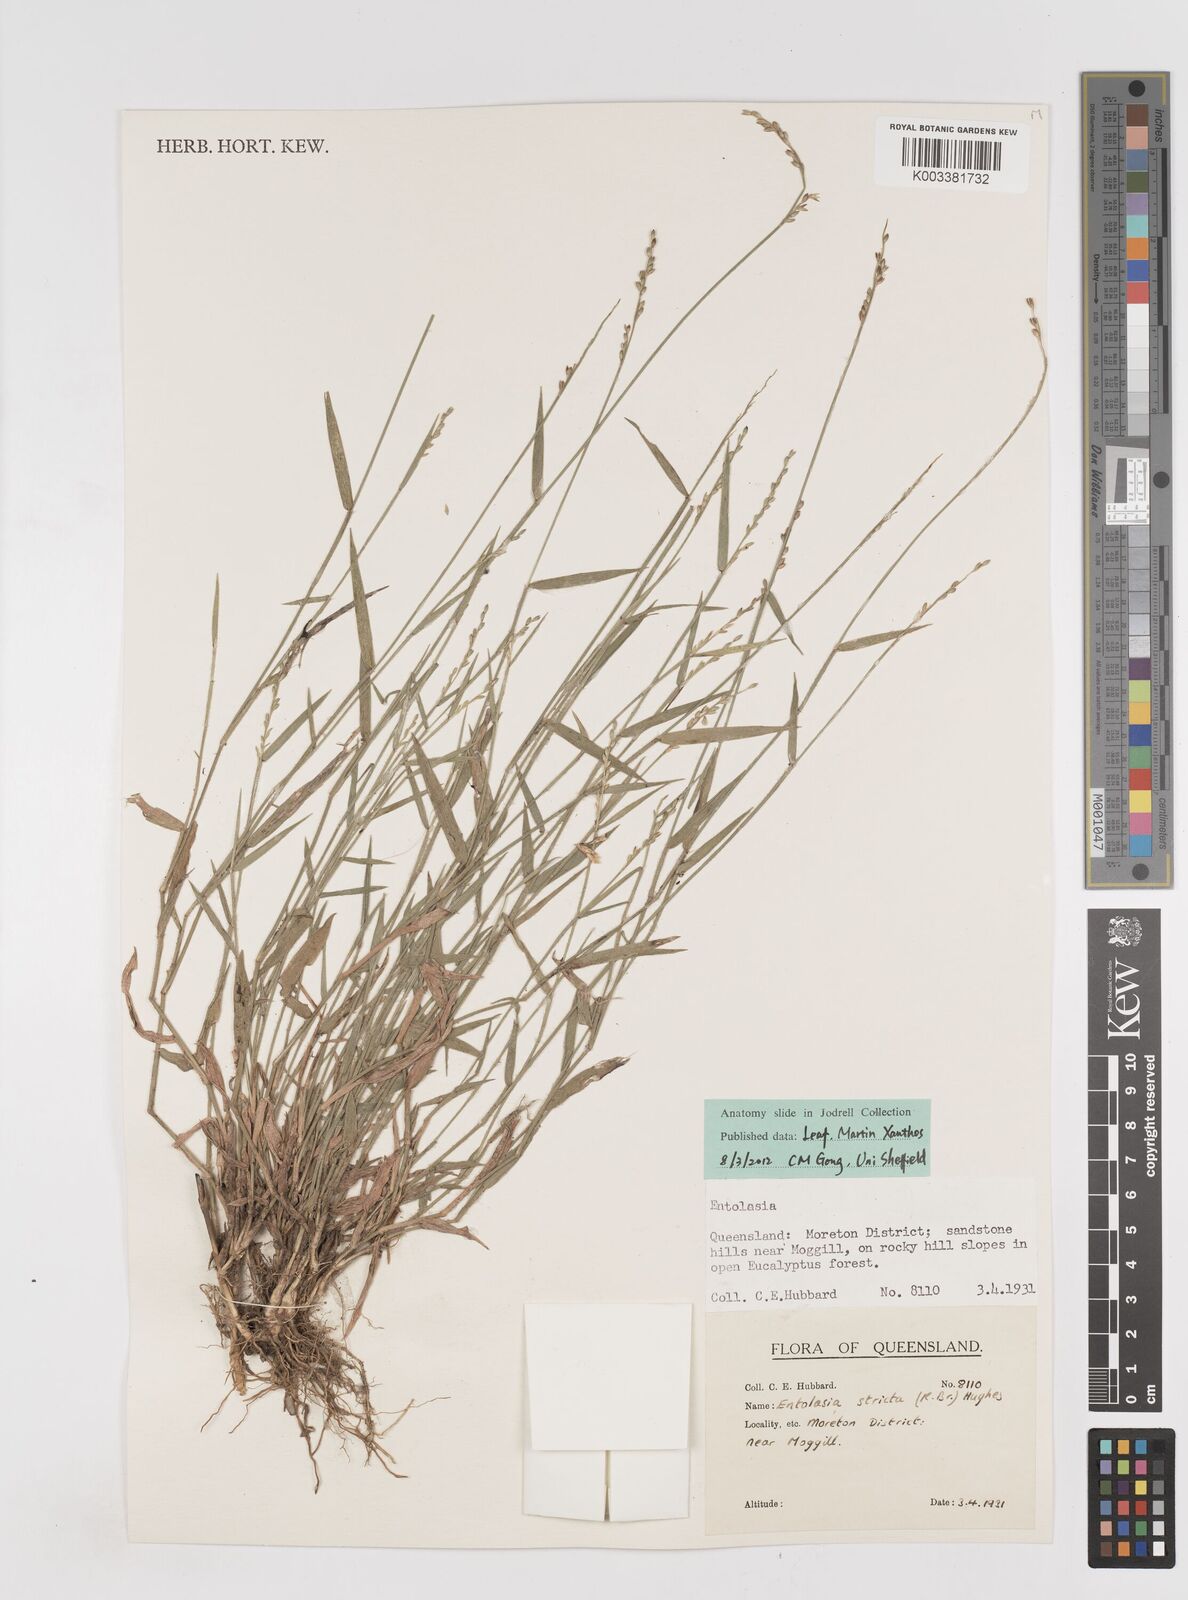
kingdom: Plantae
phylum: Tracheophyta
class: Liliopsida
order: Poales
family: Poaceae
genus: Entolasia
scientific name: Entolasia stricta
